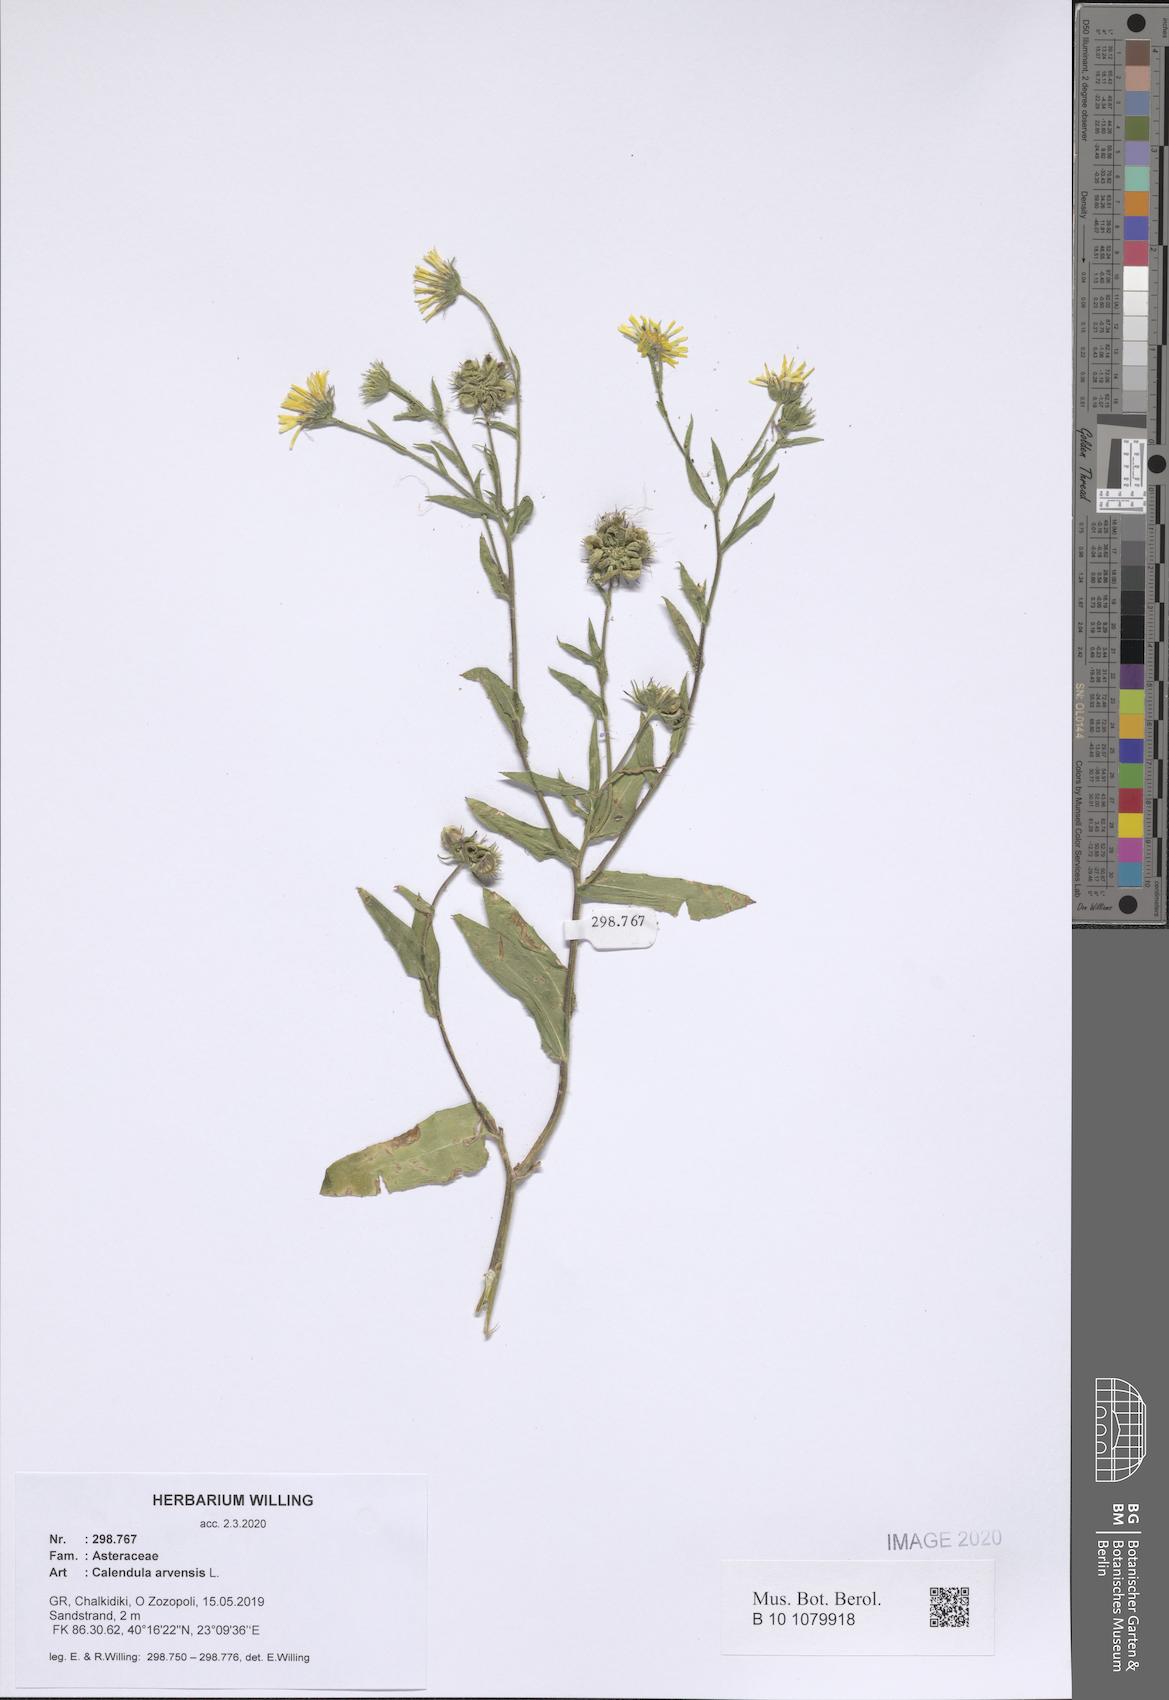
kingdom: Plantae
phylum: Tracheophyta
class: Magnoliopsida
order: Asterales
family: Asteraceae
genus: Calendula
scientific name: Calendula arvensis
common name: Field marigold
